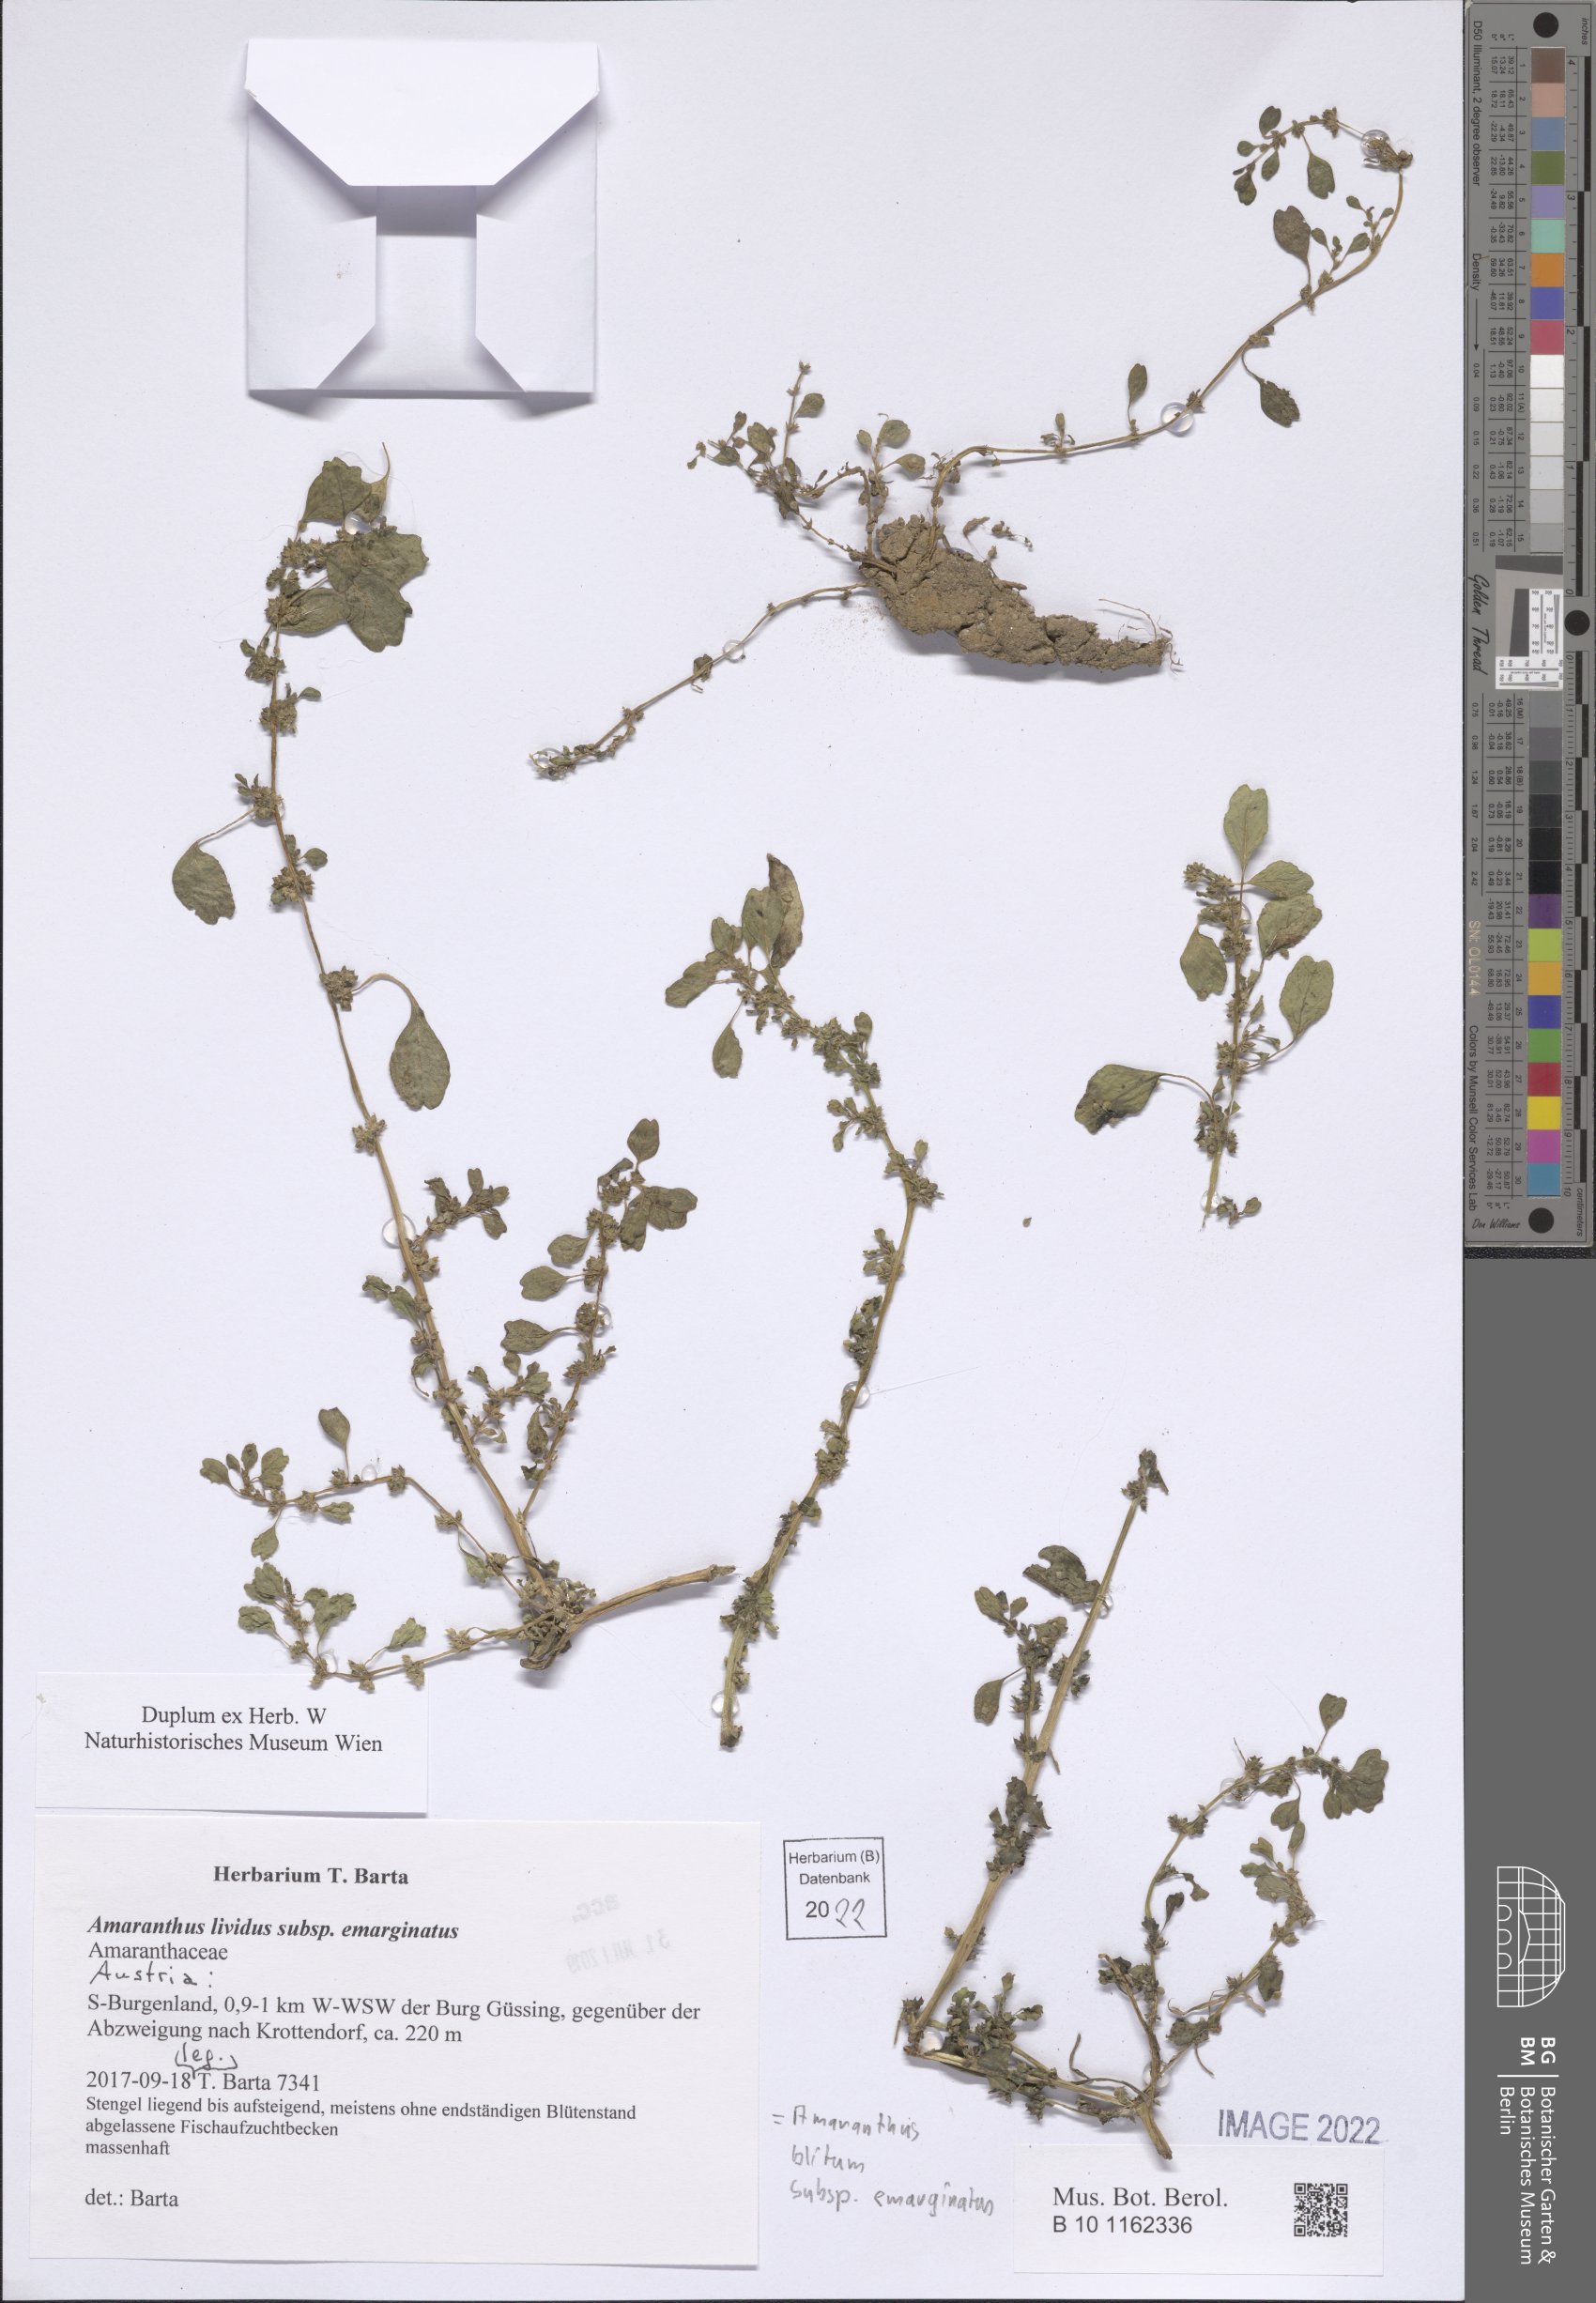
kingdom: Plantae
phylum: Tracheophyta
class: Magnoliopsida
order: Caryophyllales
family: Amaranthaceae
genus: Amaranthus
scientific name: Amaranthus emarginatus
